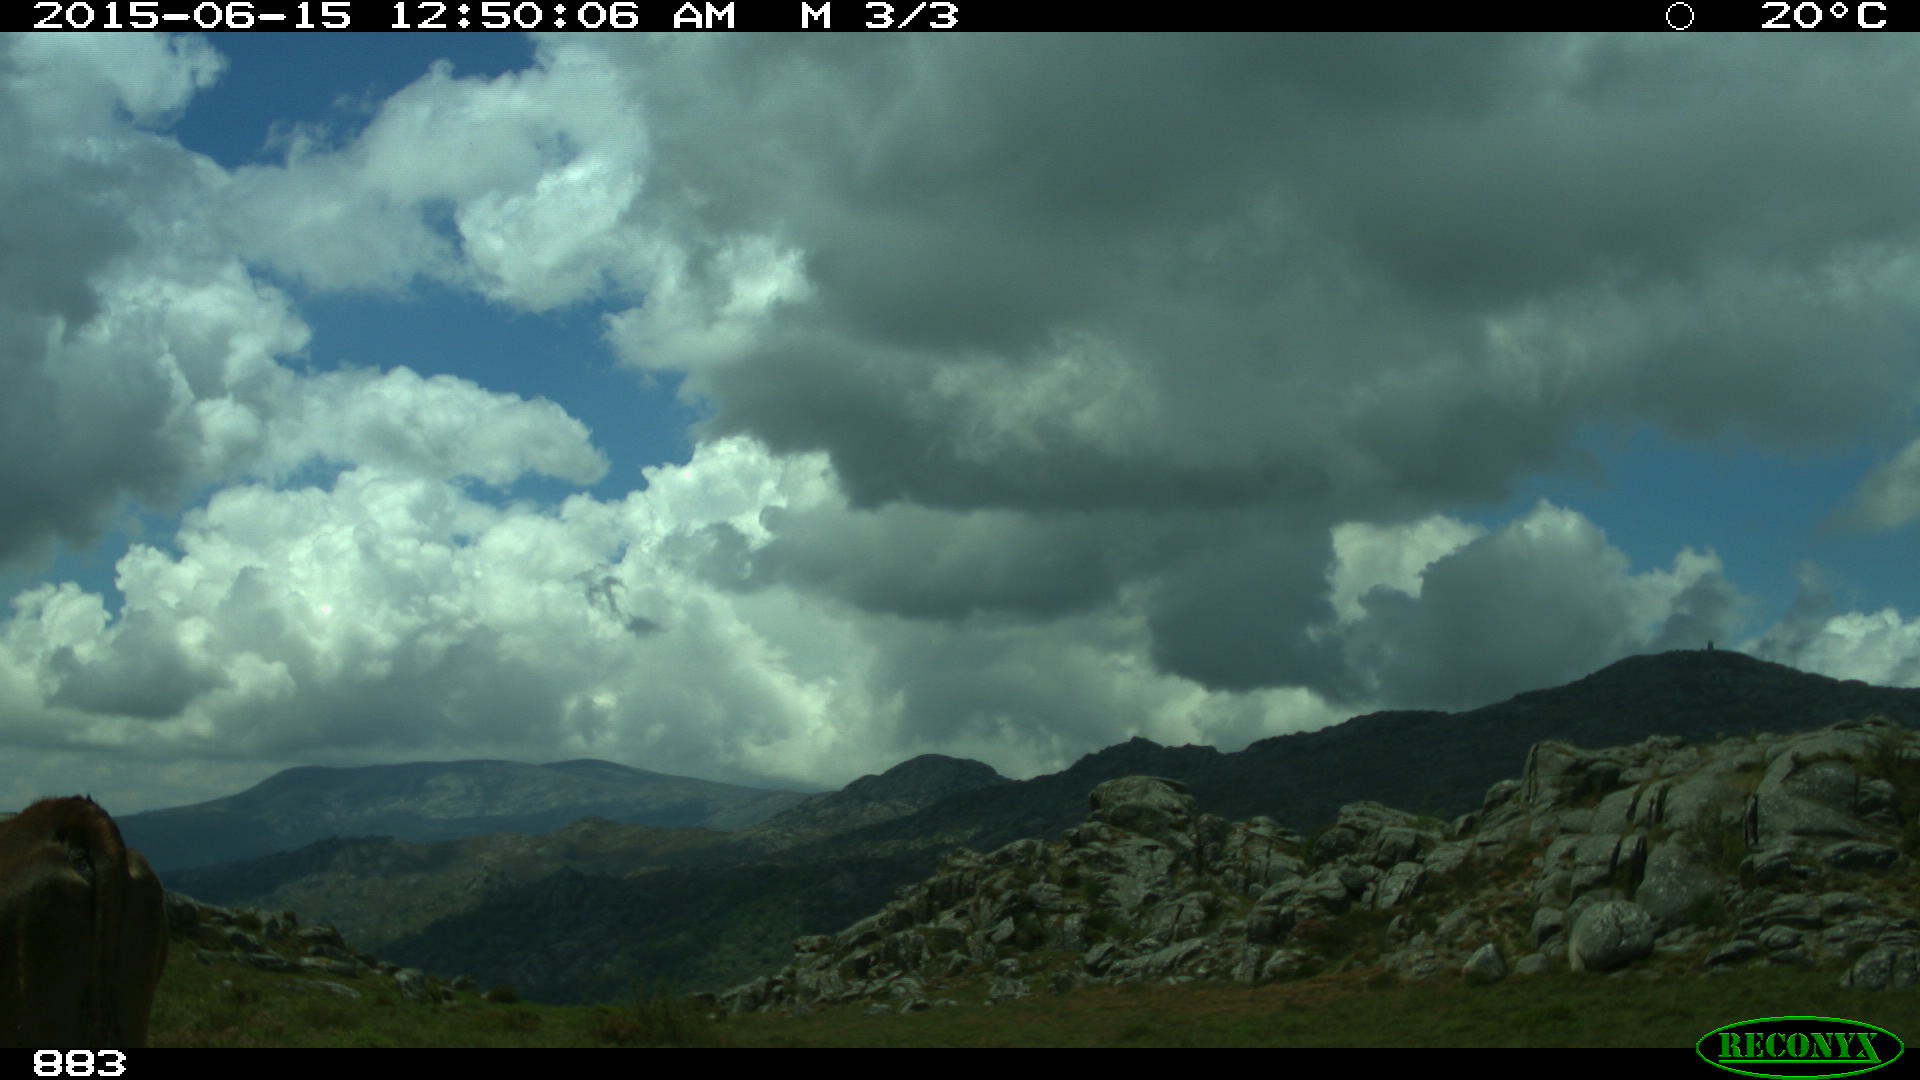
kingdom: Animalia
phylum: Chordata
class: Mammalia
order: Artiodactyla
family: Bovidae
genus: Bos
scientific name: Bos taurus
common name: Domesticated cattle
